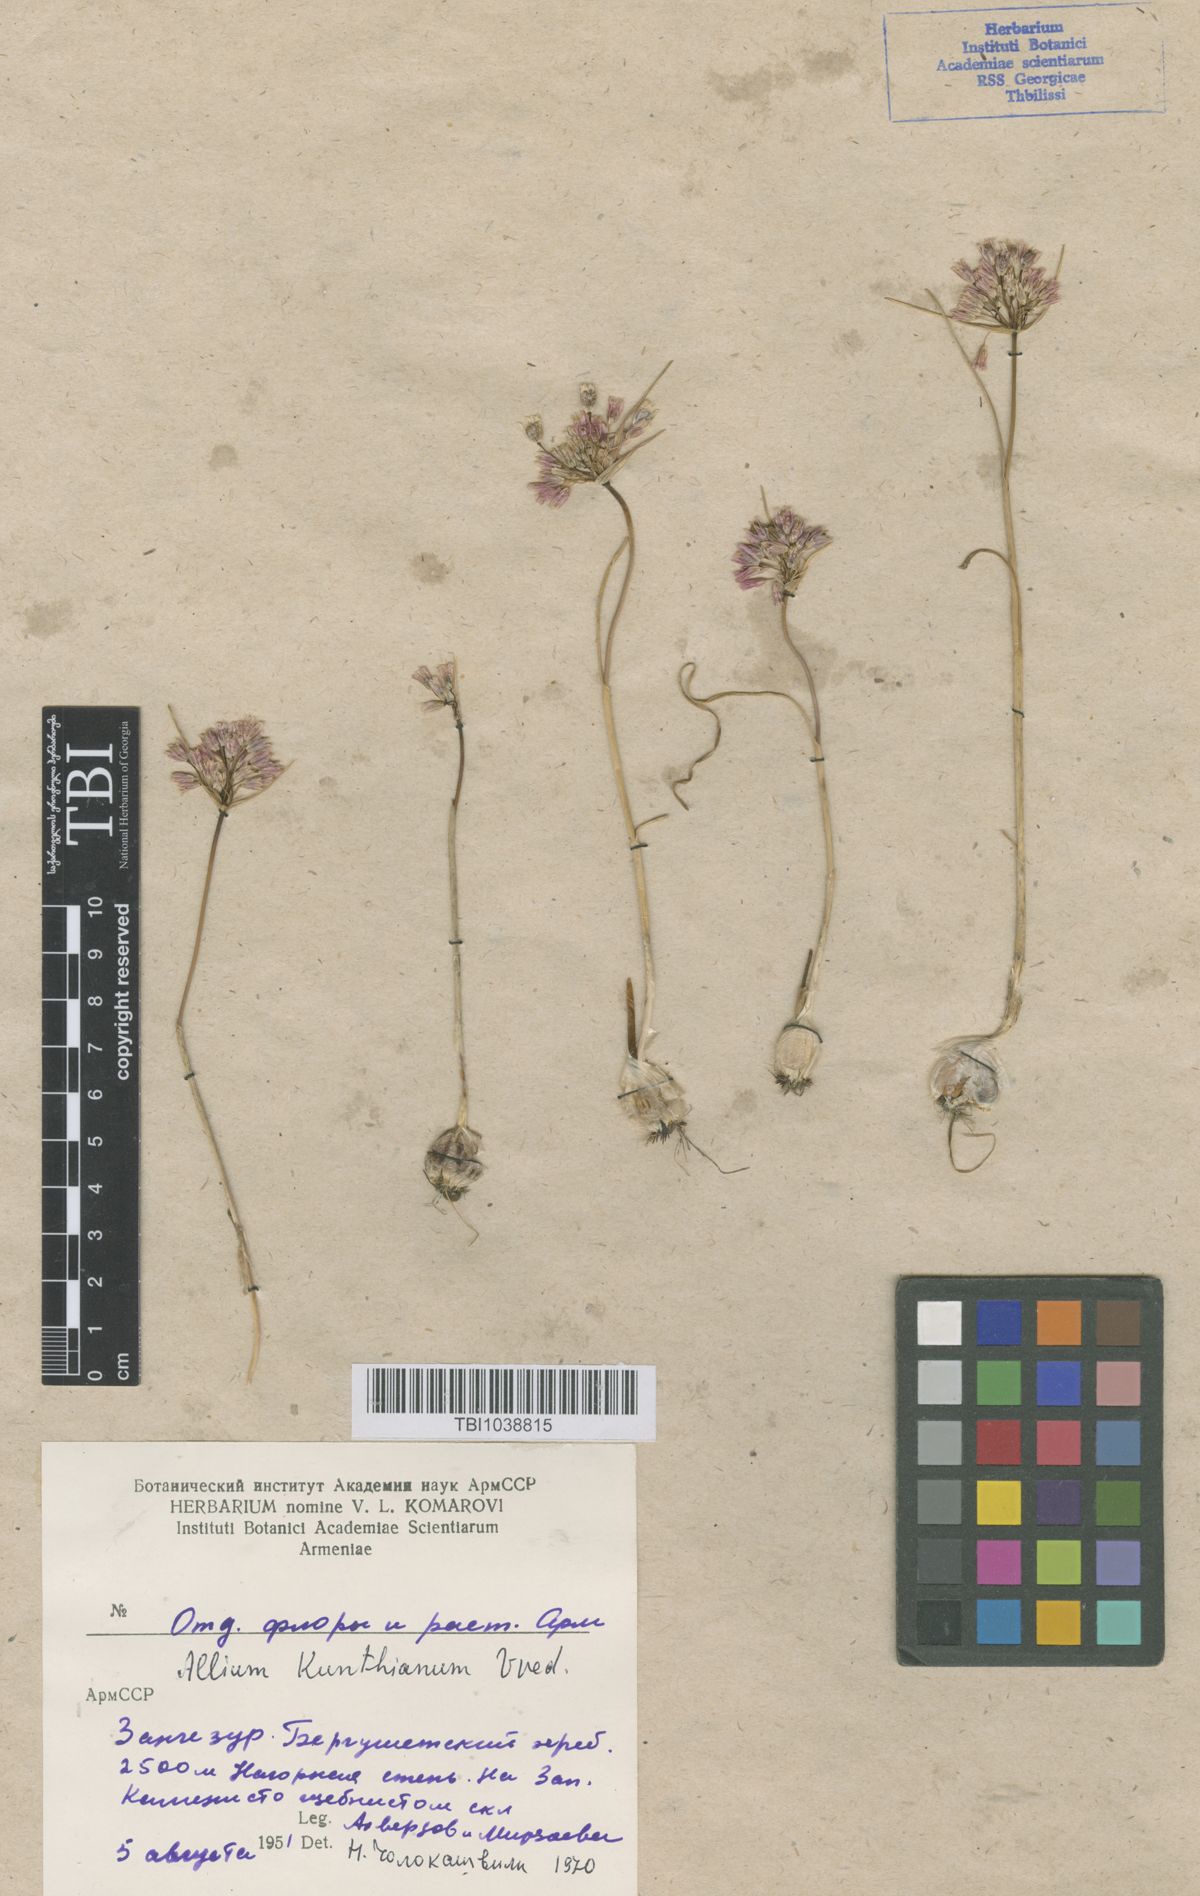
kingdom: Plantae
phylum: Tracheophyta
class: Liliopsida
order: Asparagales
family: Amaryllidaceae
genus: Allium
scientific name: Allium kunthianum
